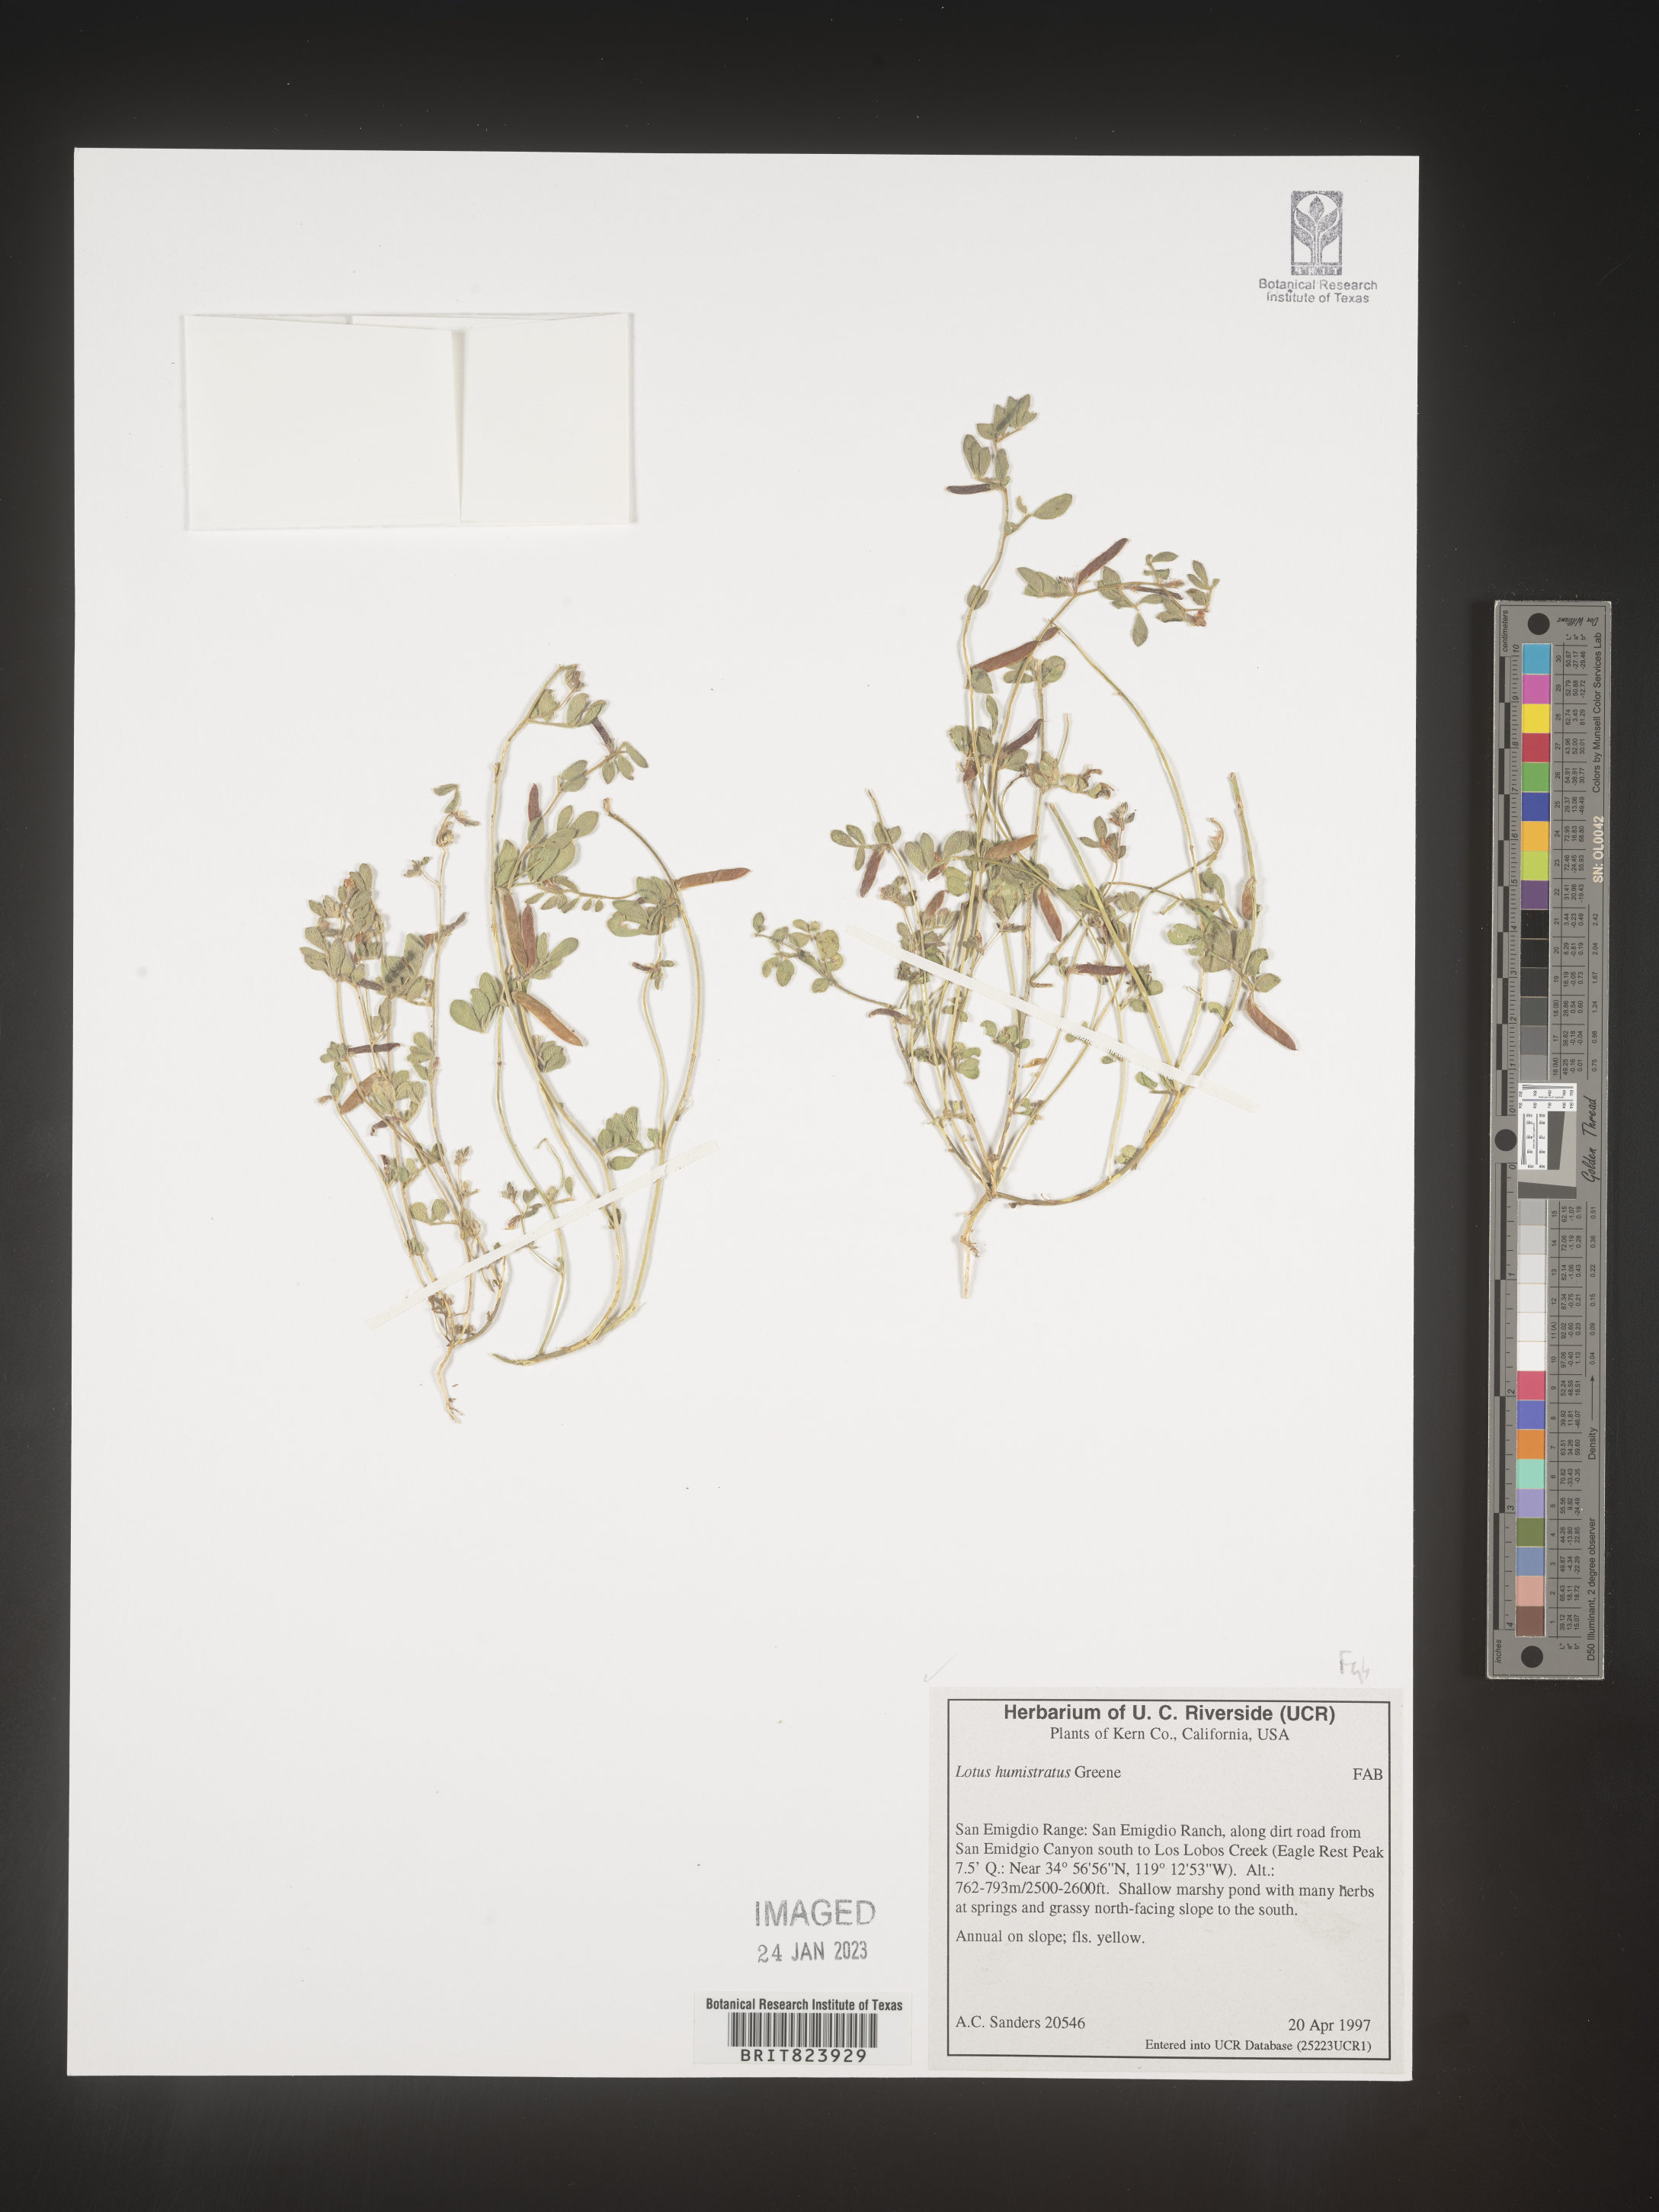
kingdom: Plantae
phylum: Tracheophyta
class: Magnoliopsida
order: Fabales
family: Fabaceae
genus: Acmispon
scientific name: Acmispon brachycarpus
